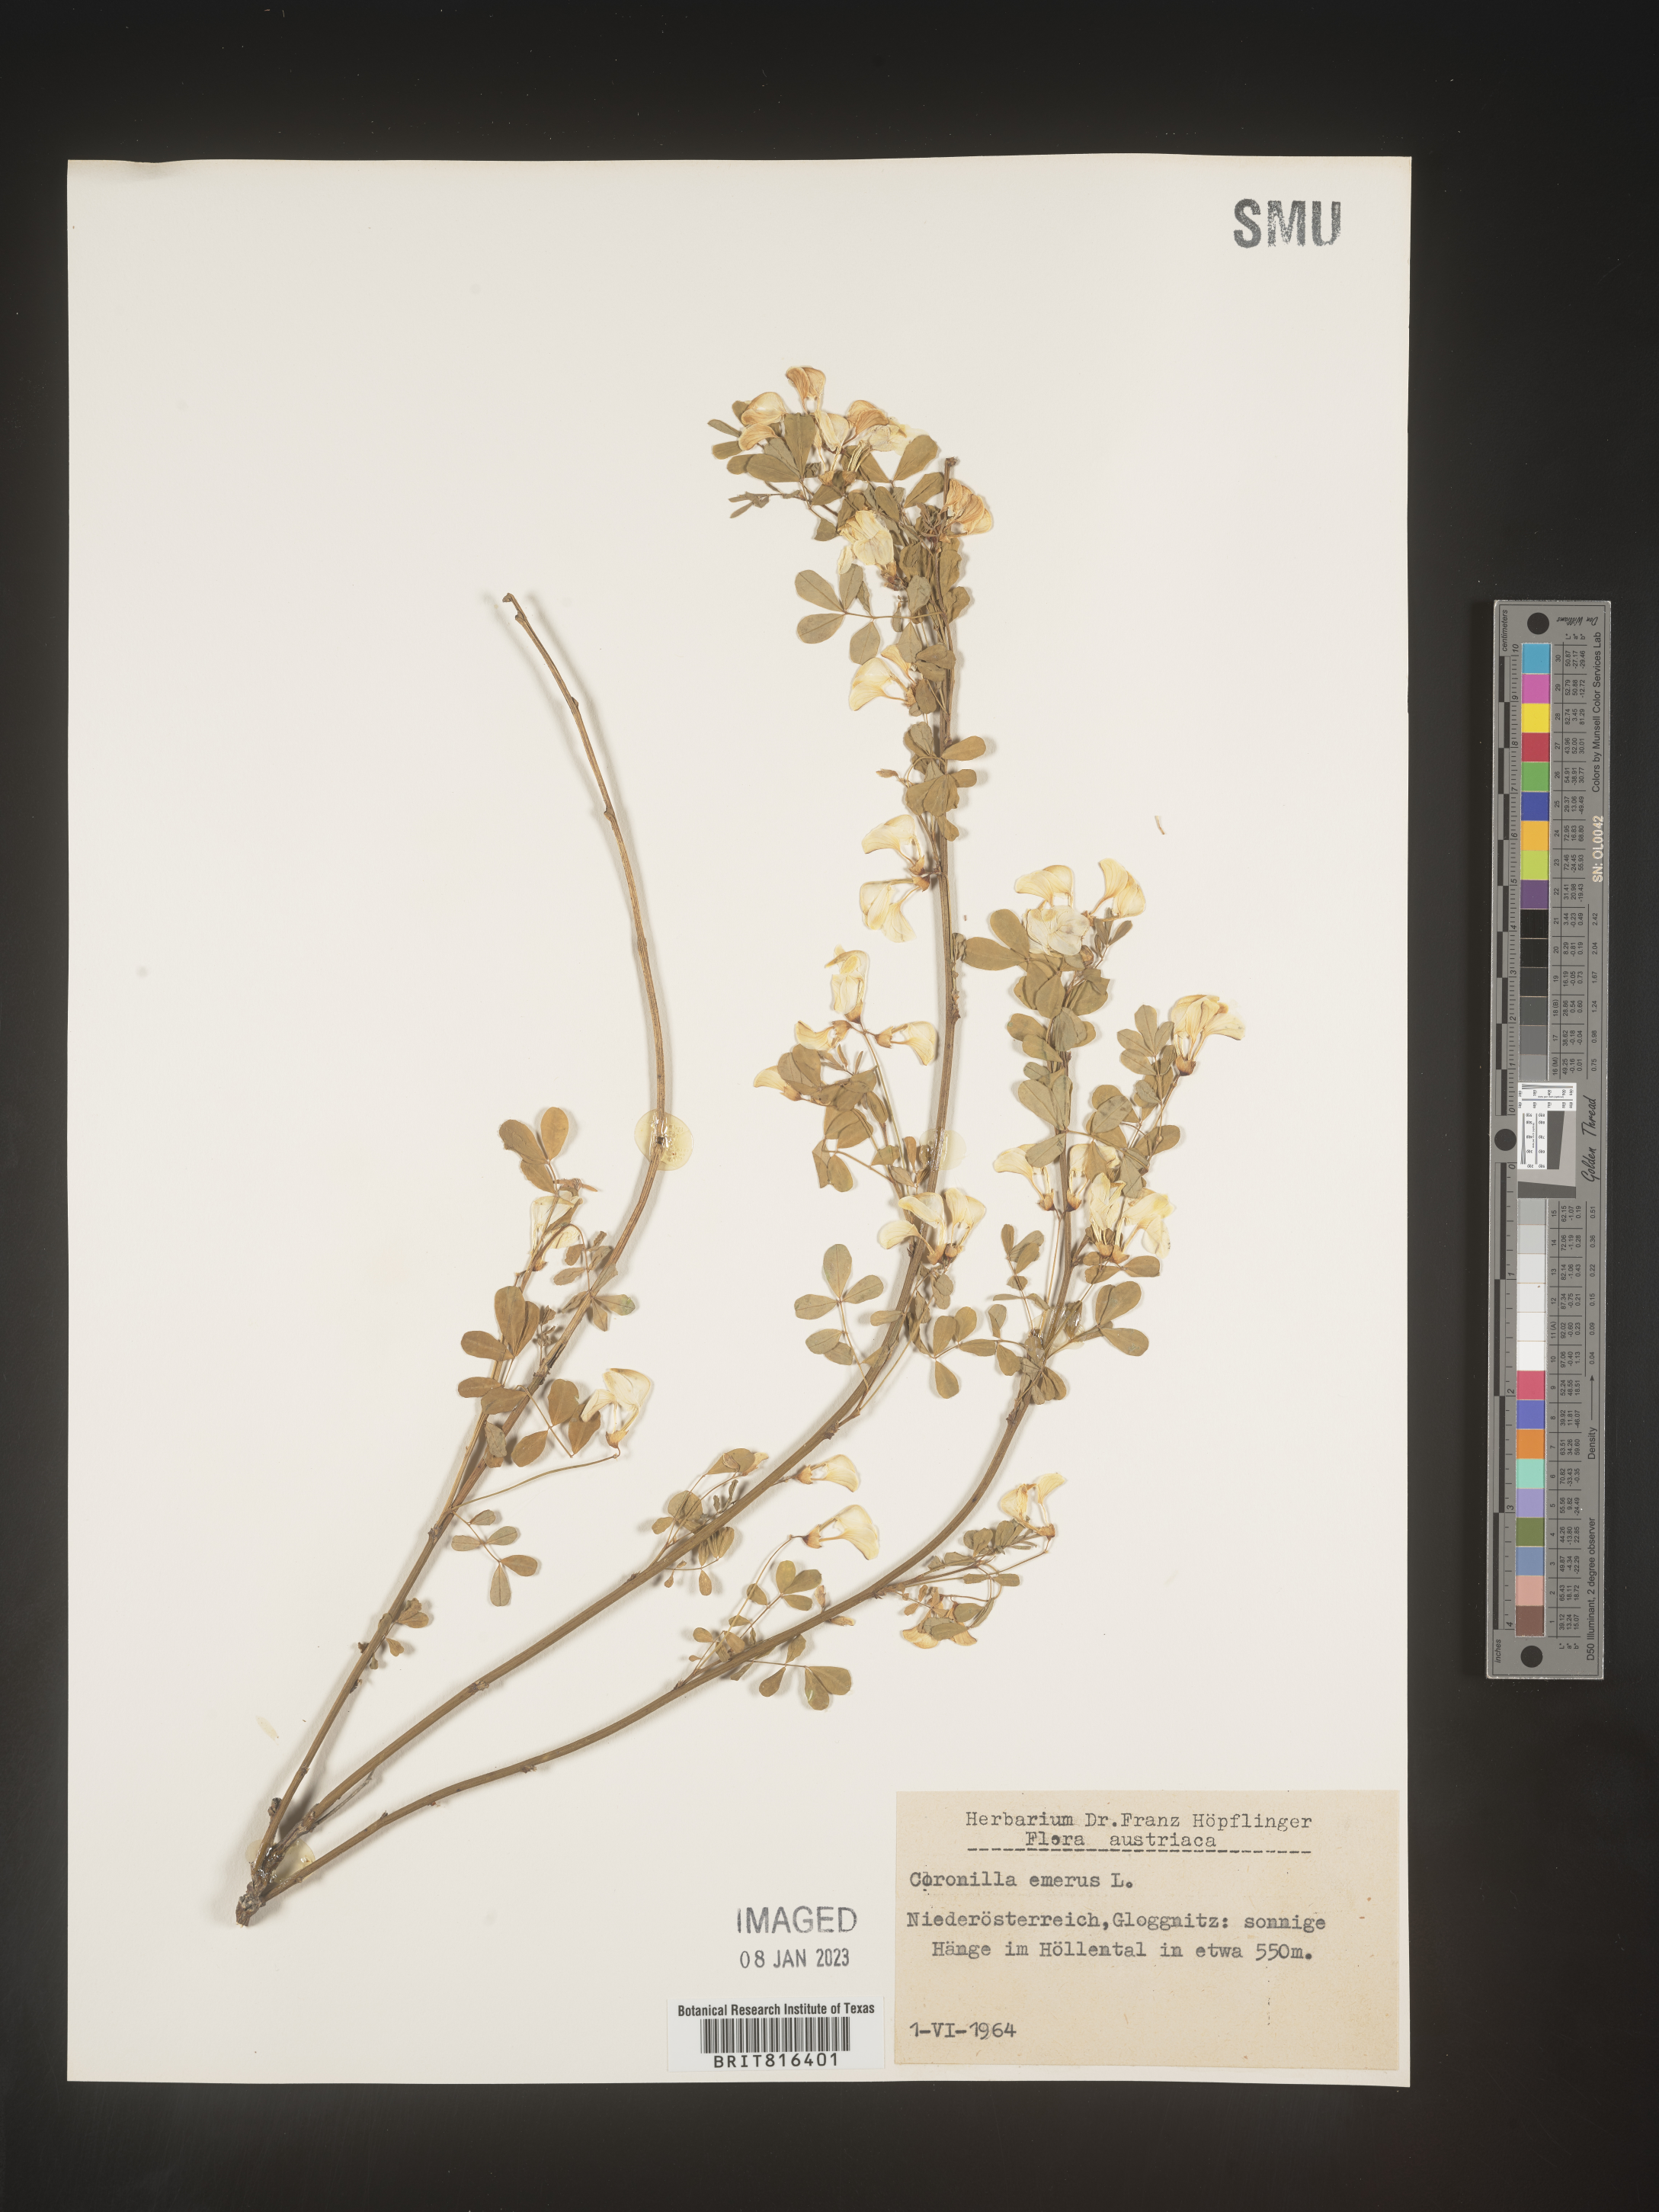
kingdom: Plantae
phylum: Tracheophyta
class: Magnoliopsida
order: Fabales
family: Fabaceae
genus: Coronilla
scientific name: Coronilla
